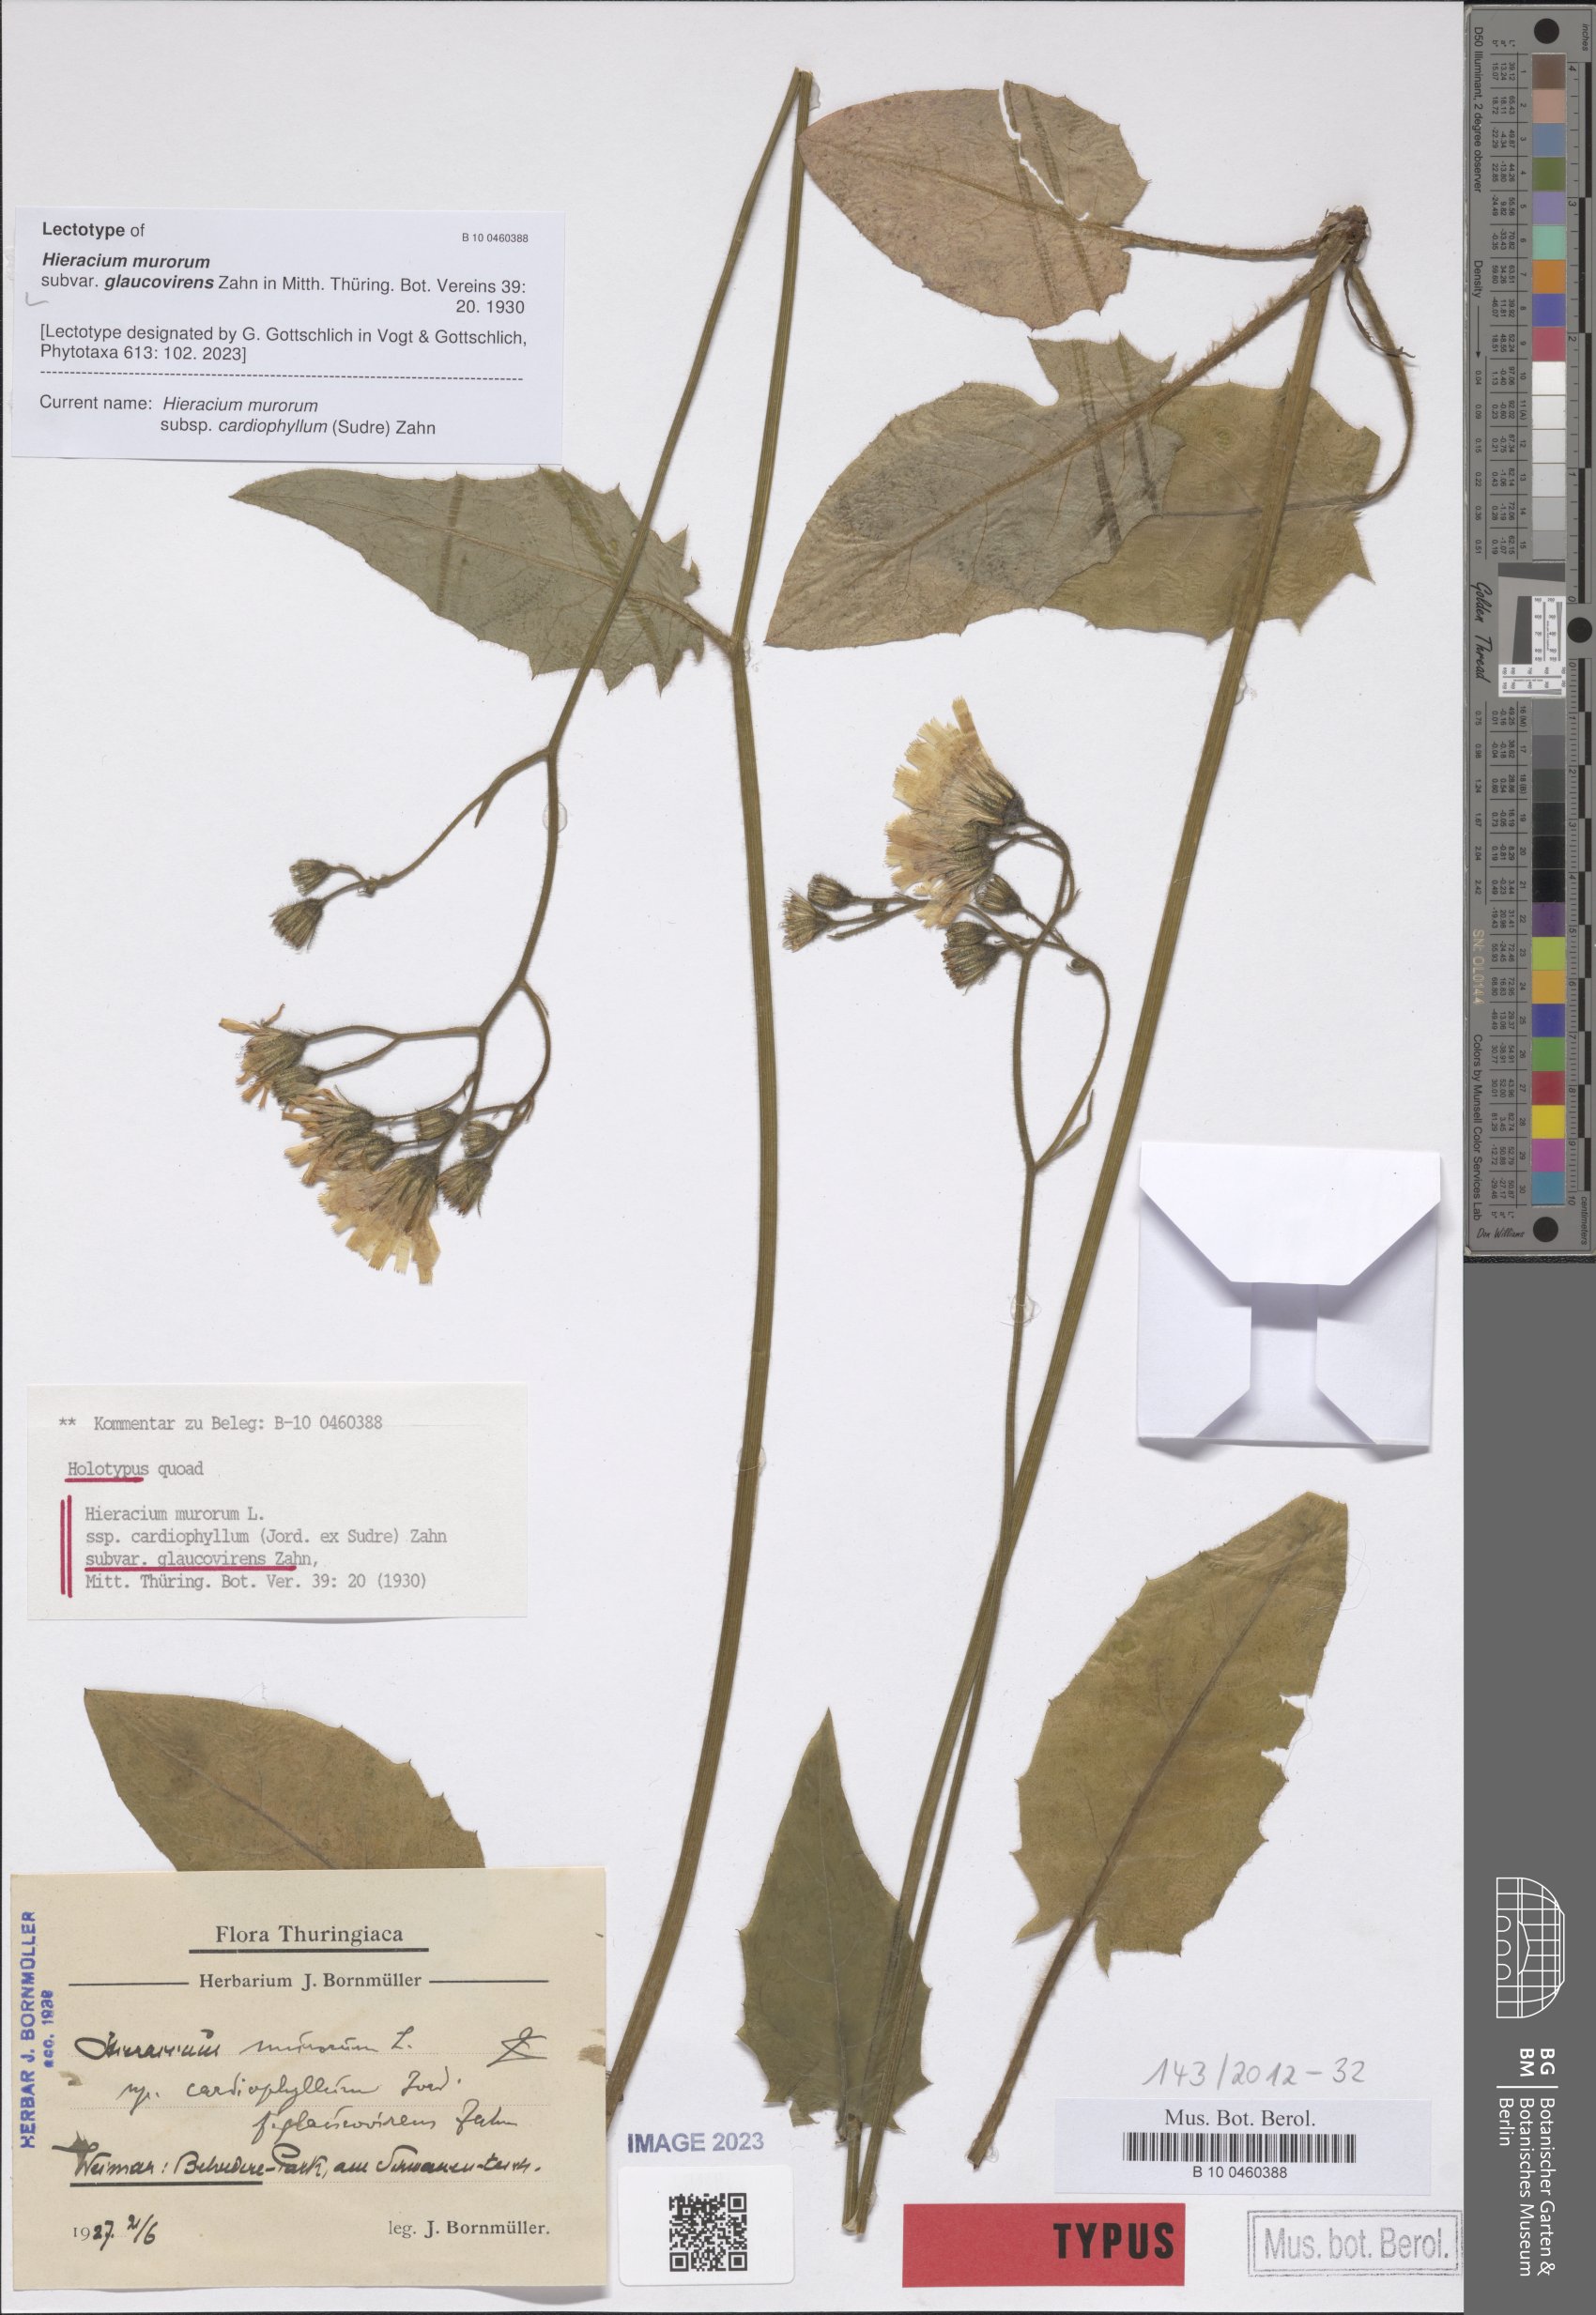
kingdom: Plantae
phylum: Tracheophyta
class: Magnoliopsida
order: Asterales
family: Asteraceae
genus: Hieracium
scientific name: Hieracium subglaucovirens
